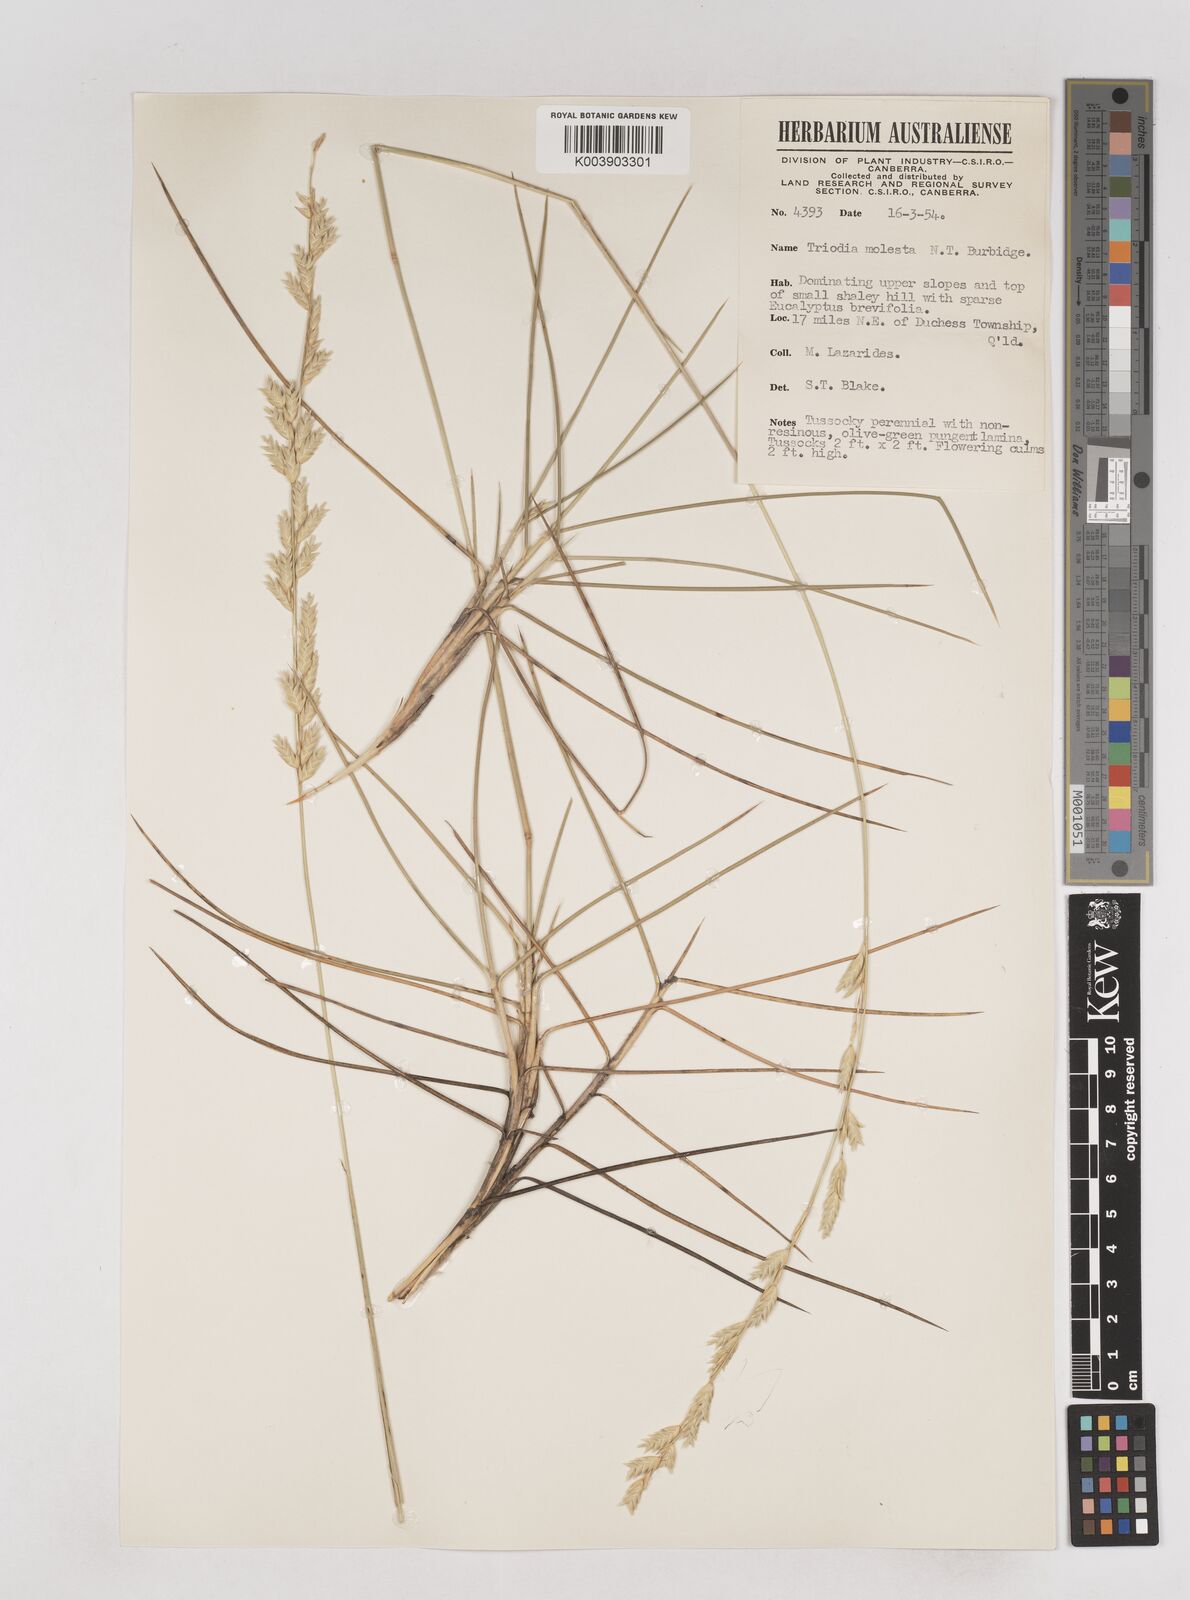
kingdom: Plantae
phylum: Tracheophyta
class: Liliopsida
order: Poales
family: Poaceae
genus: Triodia
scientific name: Triodia molesta
